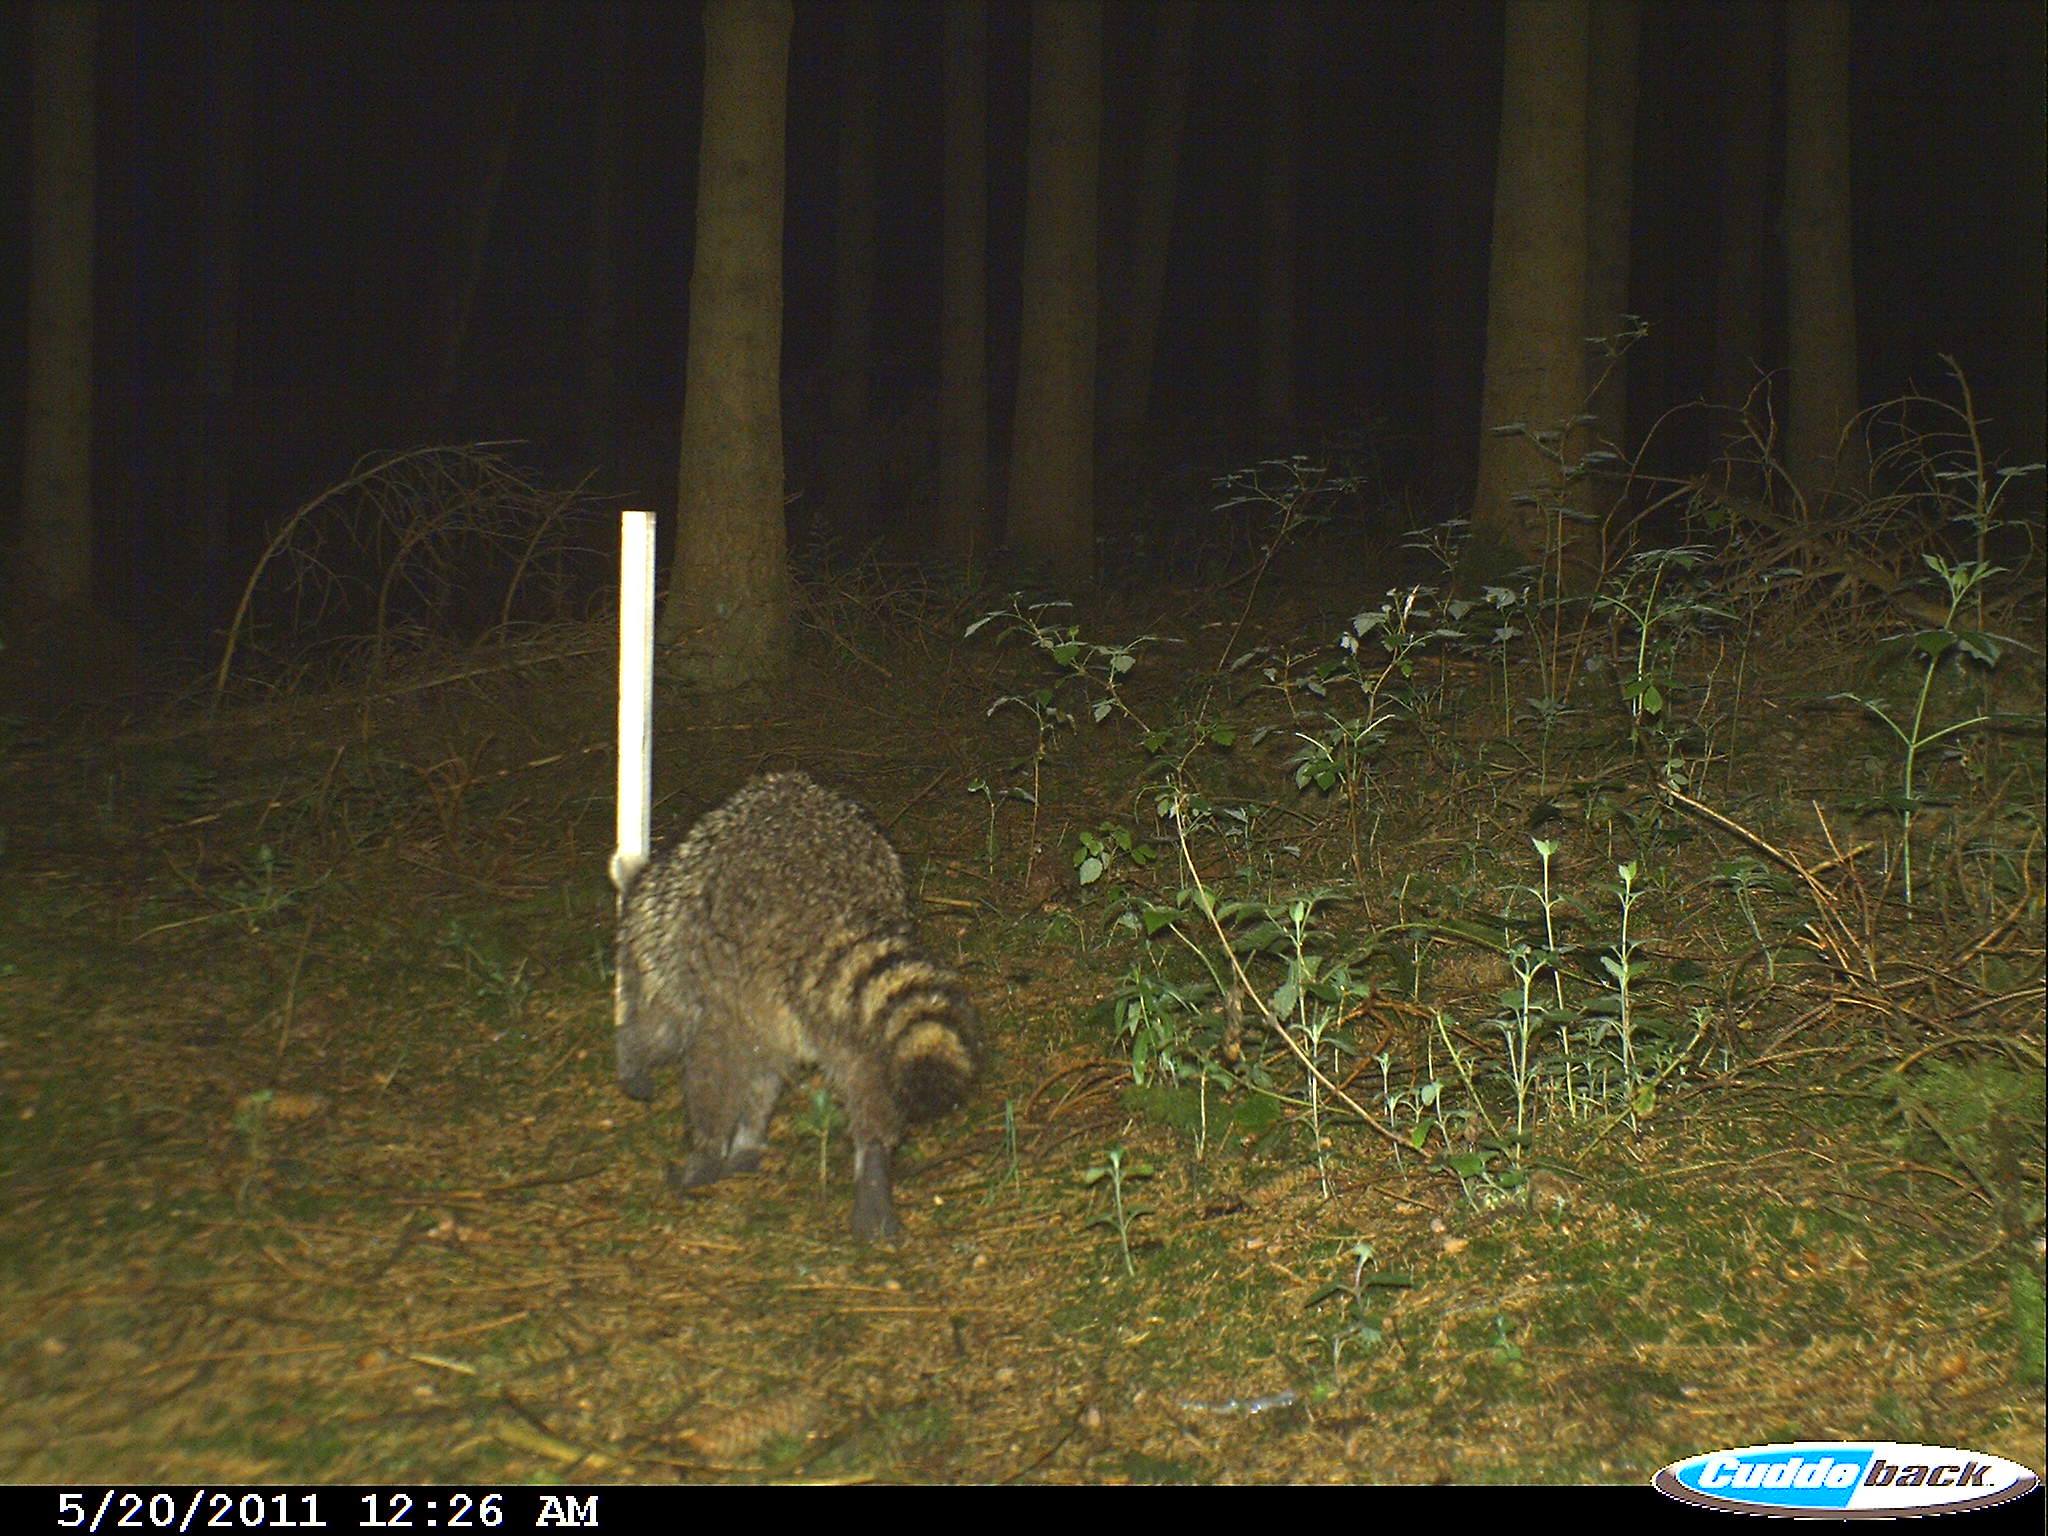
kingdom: Animalia
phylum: Chordata
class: Mammalia
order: Carnivora
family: Procyonidae
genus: Procyon
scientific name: Procyon lotor
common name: Raccoon
